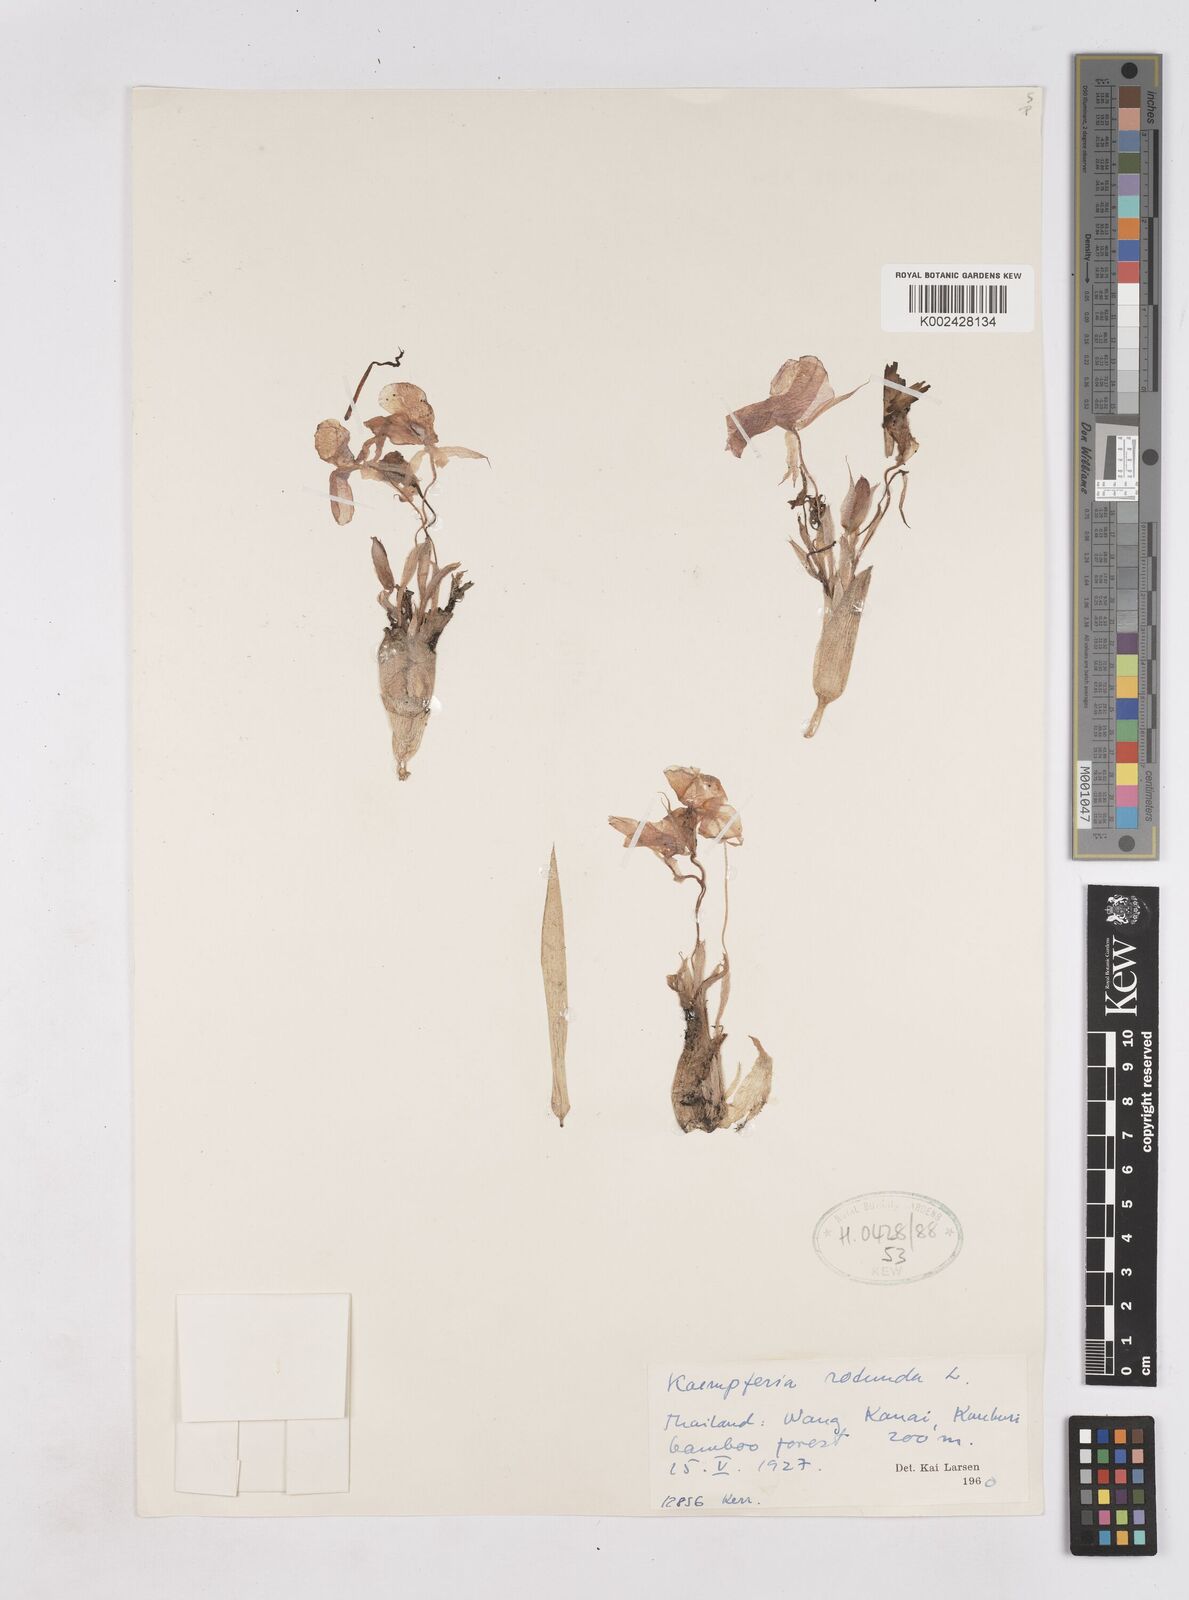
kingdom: Plantae
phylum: Tracheophyta
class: Liliopsida
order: Zingiberales
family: Zingiberaceae
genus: Kaempferia
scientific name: Kaempferia rotunda
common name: Tropical-crocus
